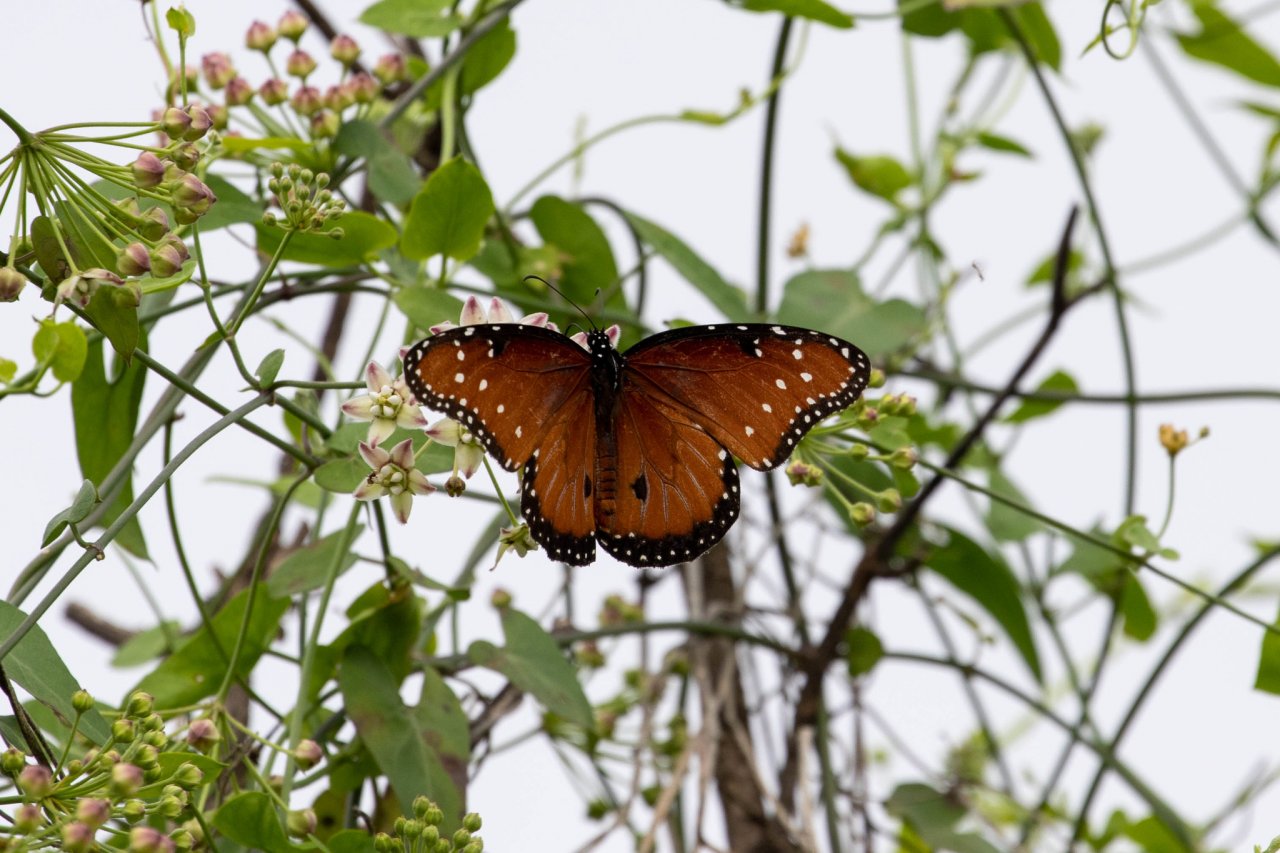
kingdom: Animalia
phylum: Arthropoda
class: Insecta
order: Lepidoptera
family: Nymphalidae
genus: Danaus
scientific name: Danaus gilippus
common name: Queen
